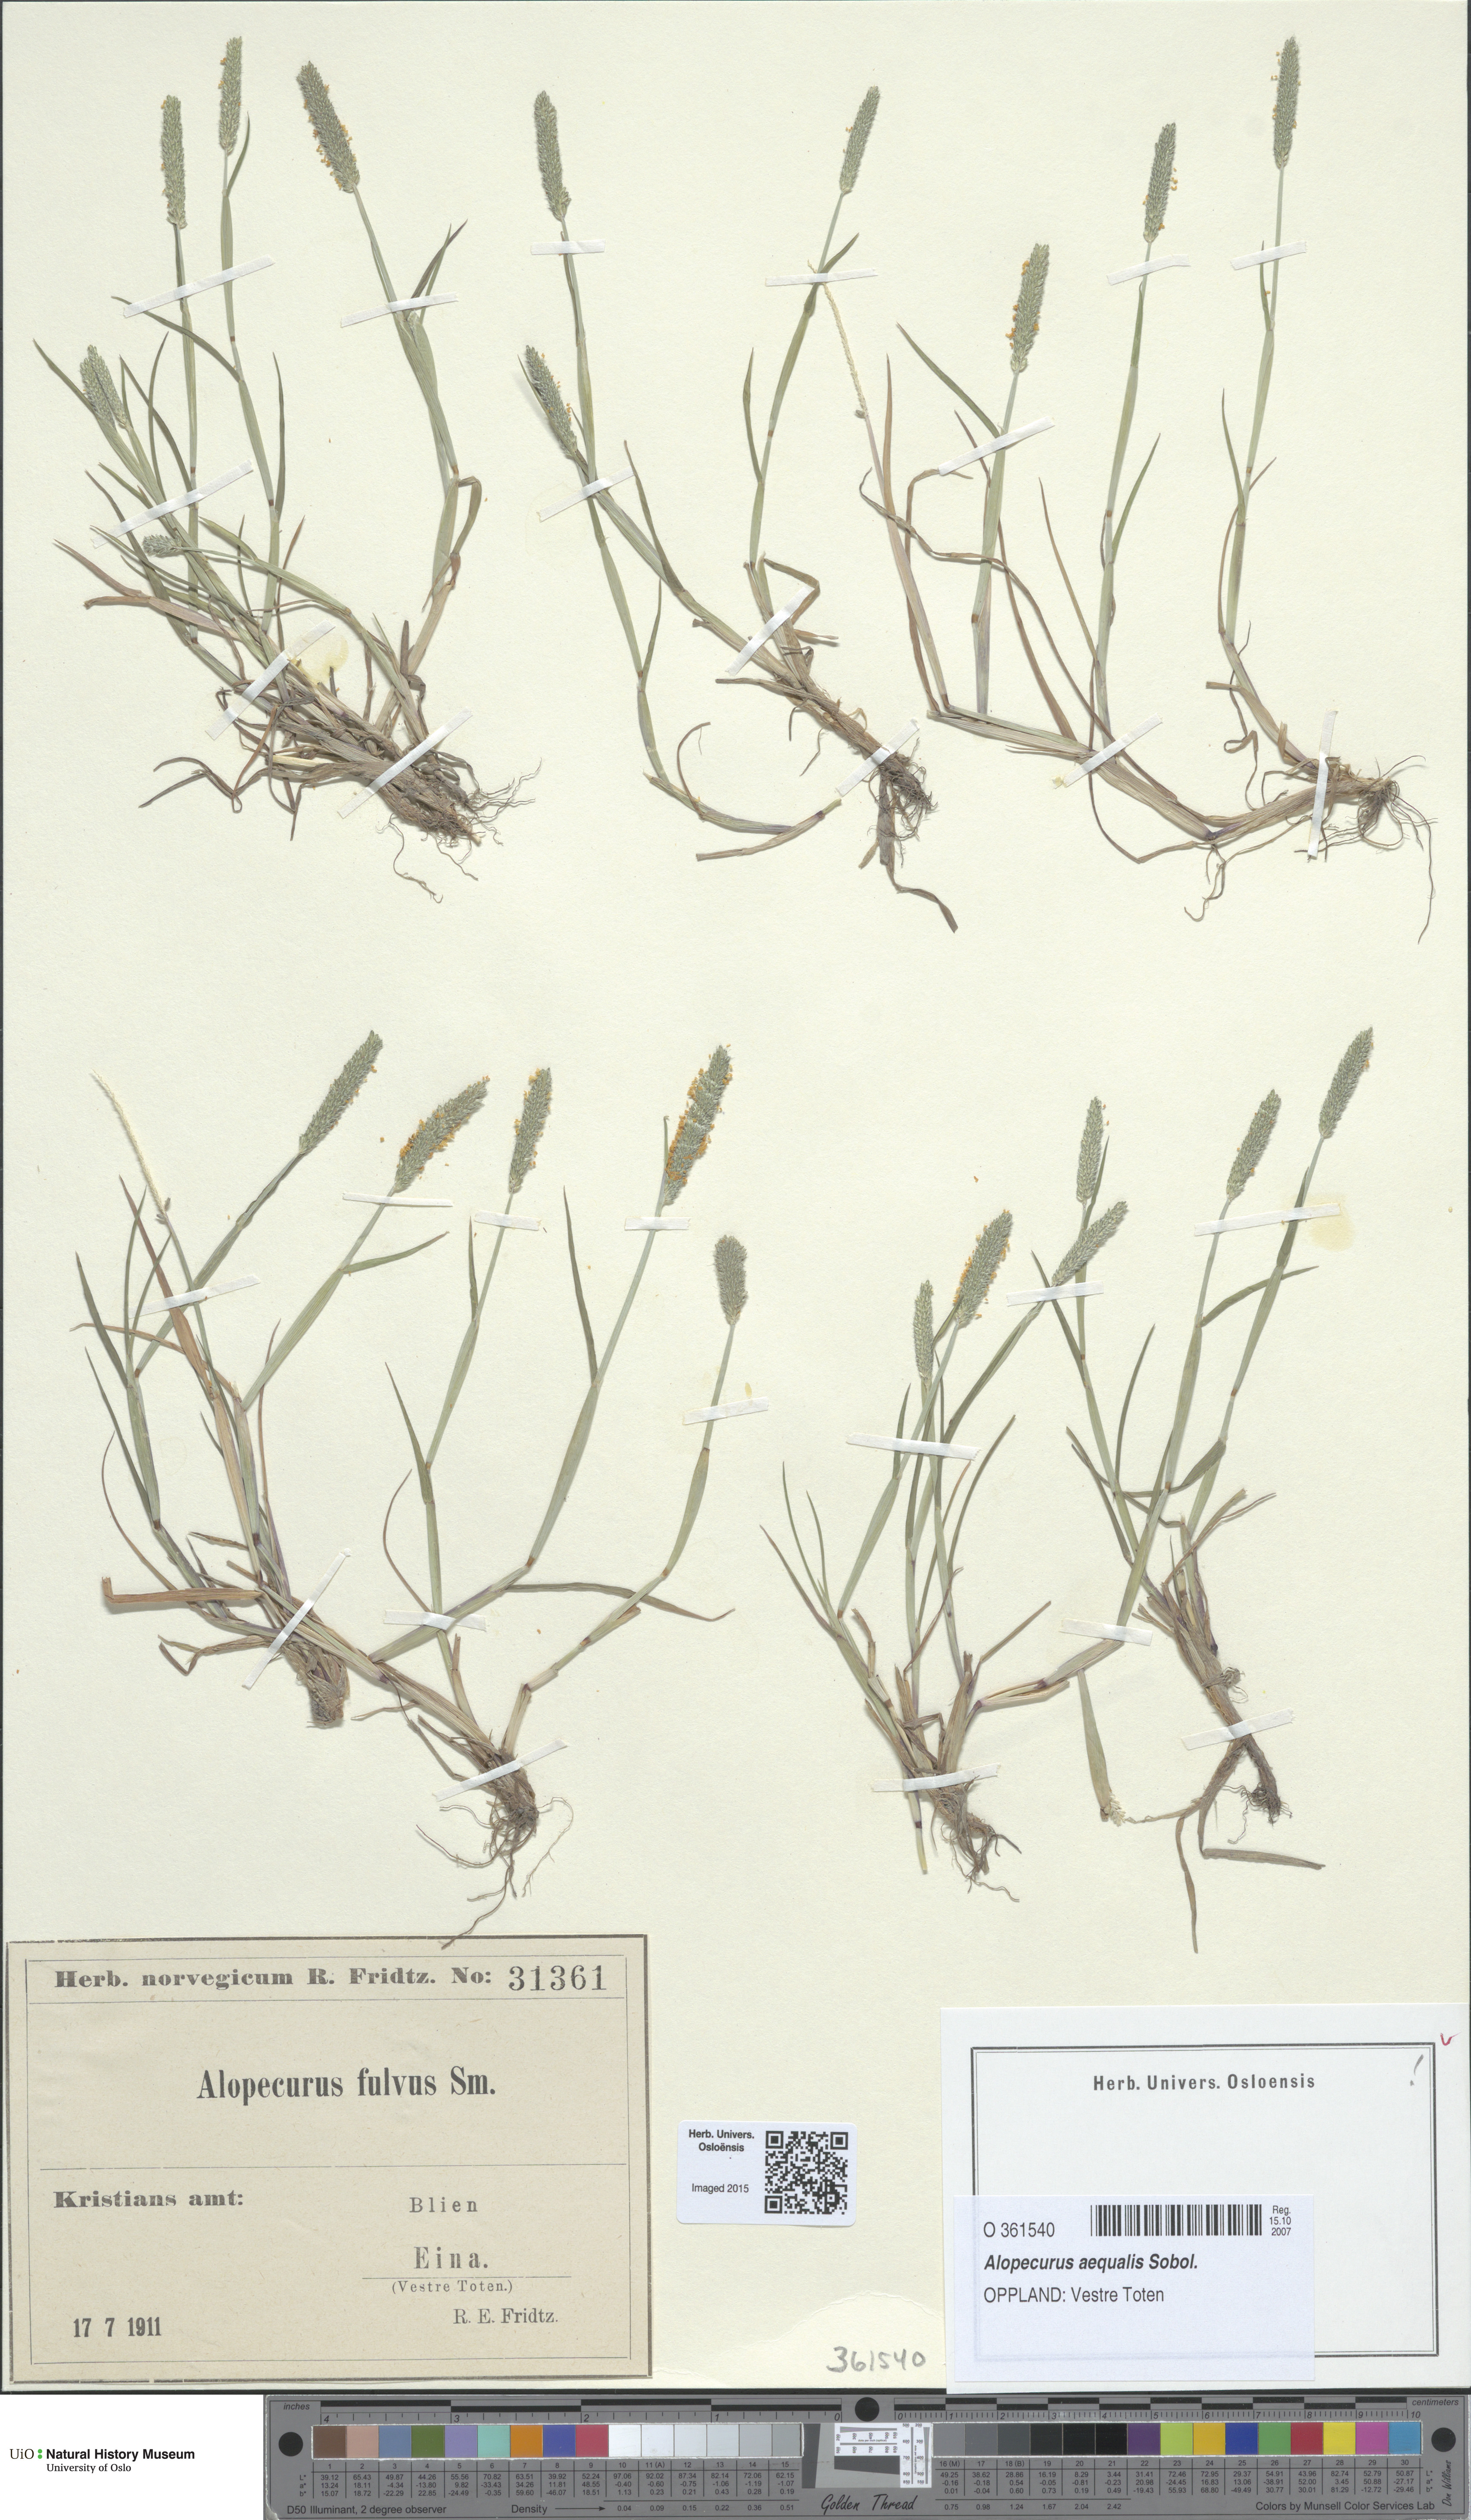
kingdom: Plantae
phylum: Tracheophyta
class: Liliopsida
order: Poales
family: Poaceae
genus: Alopecurus
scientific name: Alopecurus aequalis
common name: Orange foxtail
